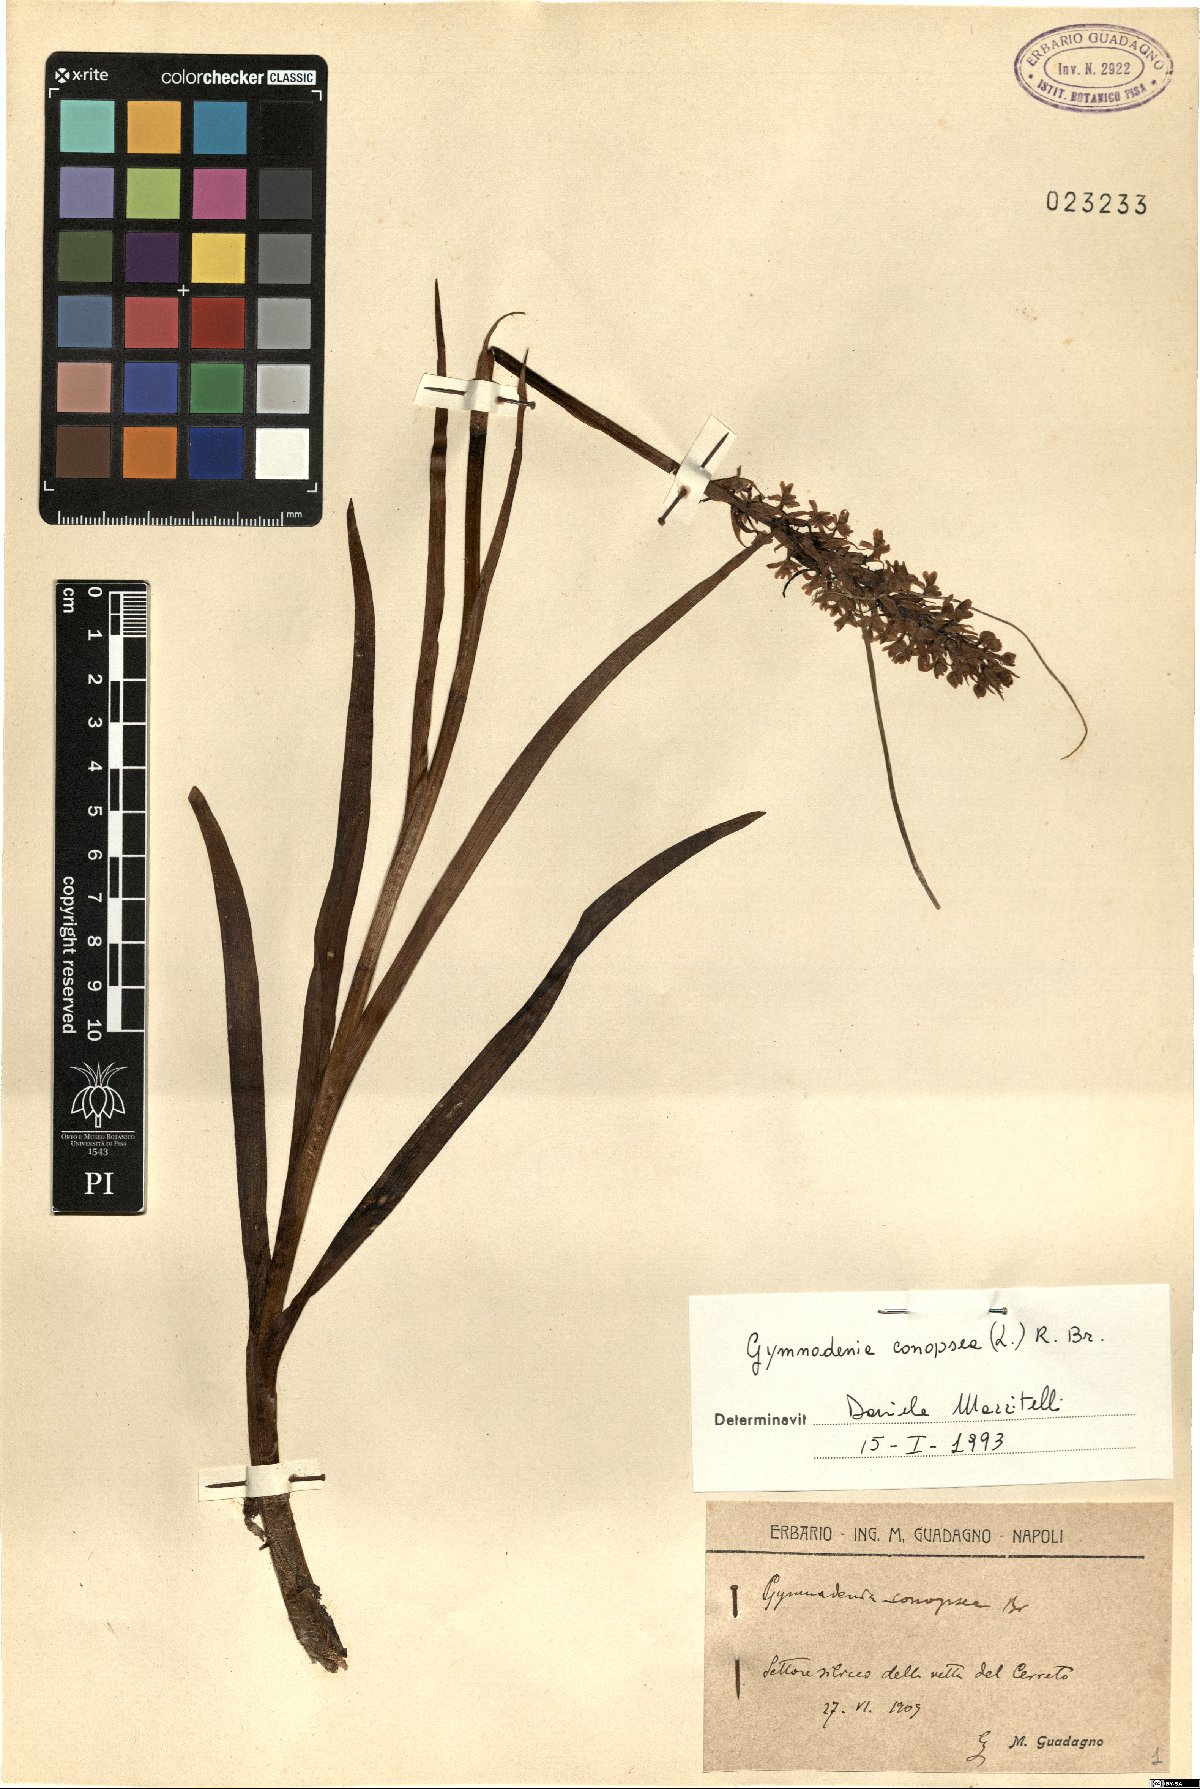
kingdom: Plantae
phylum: Tracheophyta
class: Liliopsida
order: Asparagales
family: Orchidaceae
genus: Gymnadenia
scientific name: Gymnadenia conopsea
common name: Fragrant orchid
